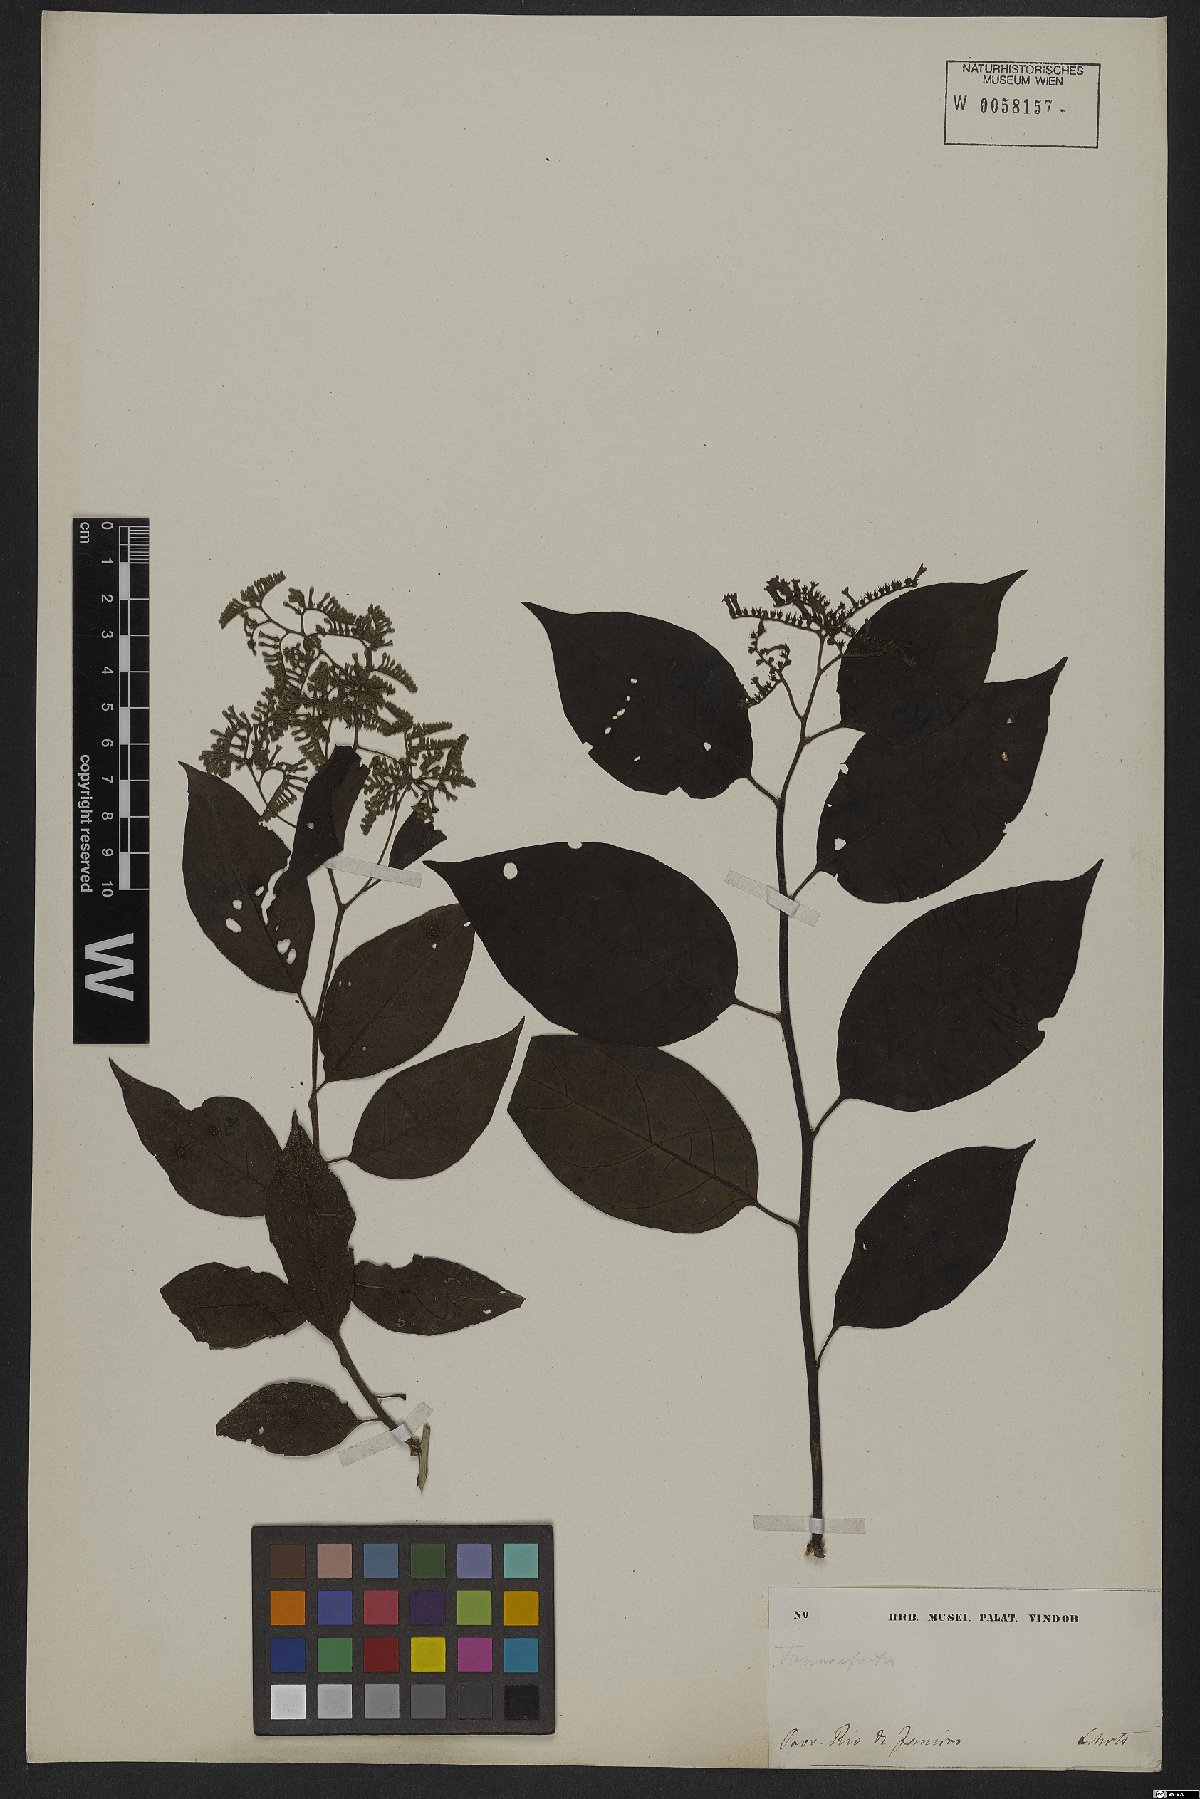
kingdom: Plantae
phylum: Tracheophyta
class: Magnoliopsida
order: Boraginales
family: Heliotropiaceae
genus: Myriopus
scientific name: Myriopus paniculatus
